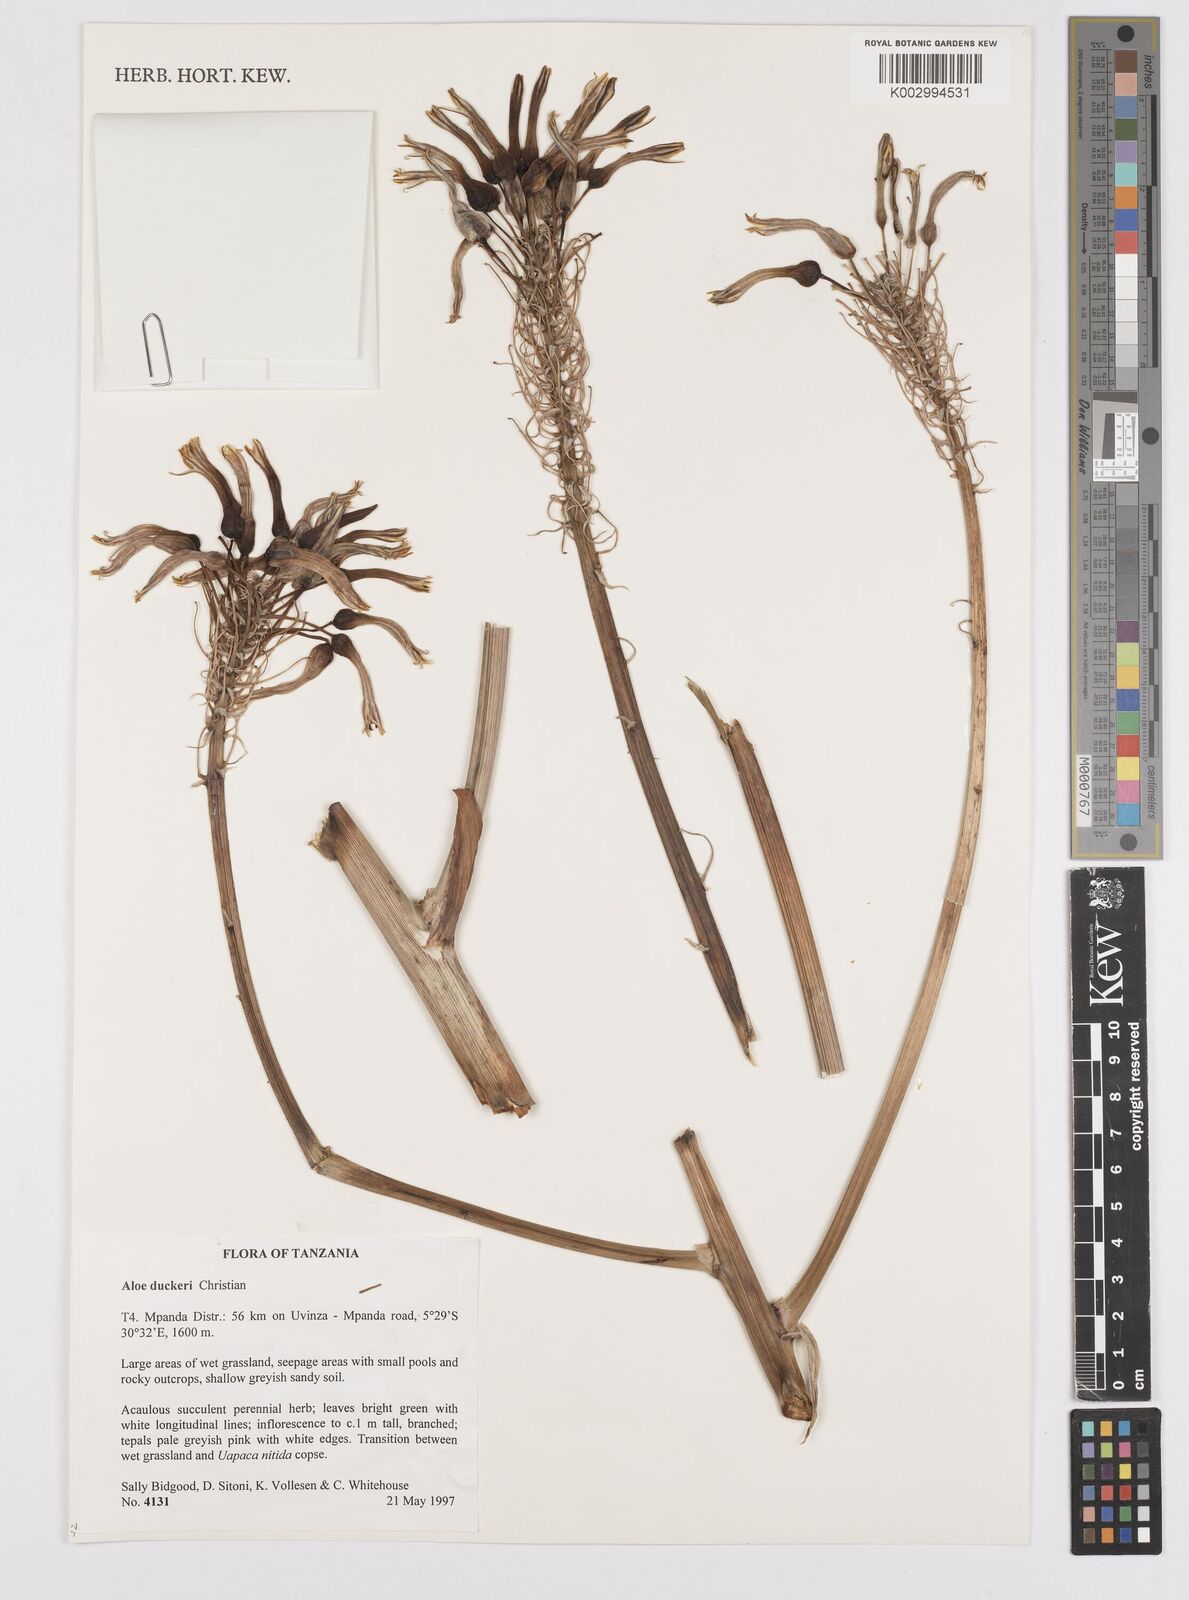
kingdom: Plantae
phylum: Tracheophyta
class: Liliopsida
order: Asparagales
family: Asphodelaceae
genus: Aloe
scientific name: Aloe duckeri
